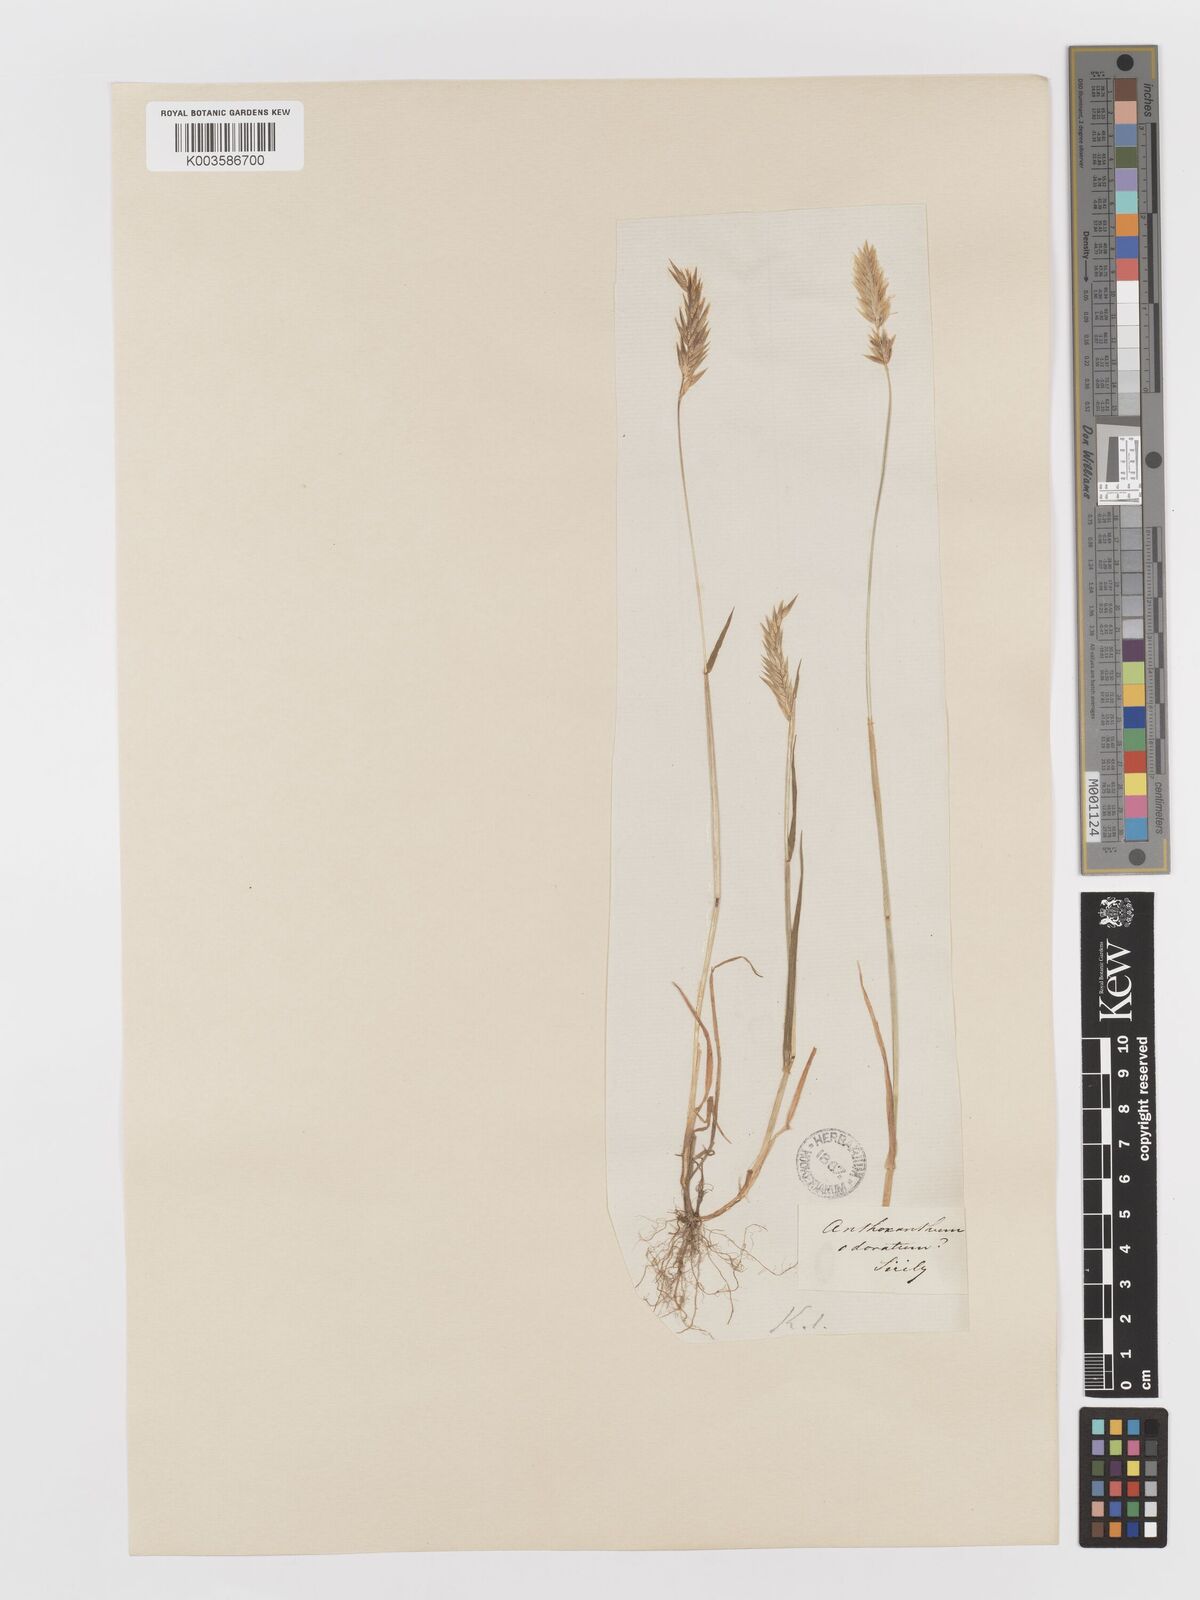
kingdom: Plantae
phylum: Tracheophyta
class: Liliopsida
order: Poales
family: Poaceae
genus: Anthoxanthum
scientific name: Anthoxanthum odoratum
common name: Sweet vernalgrass
